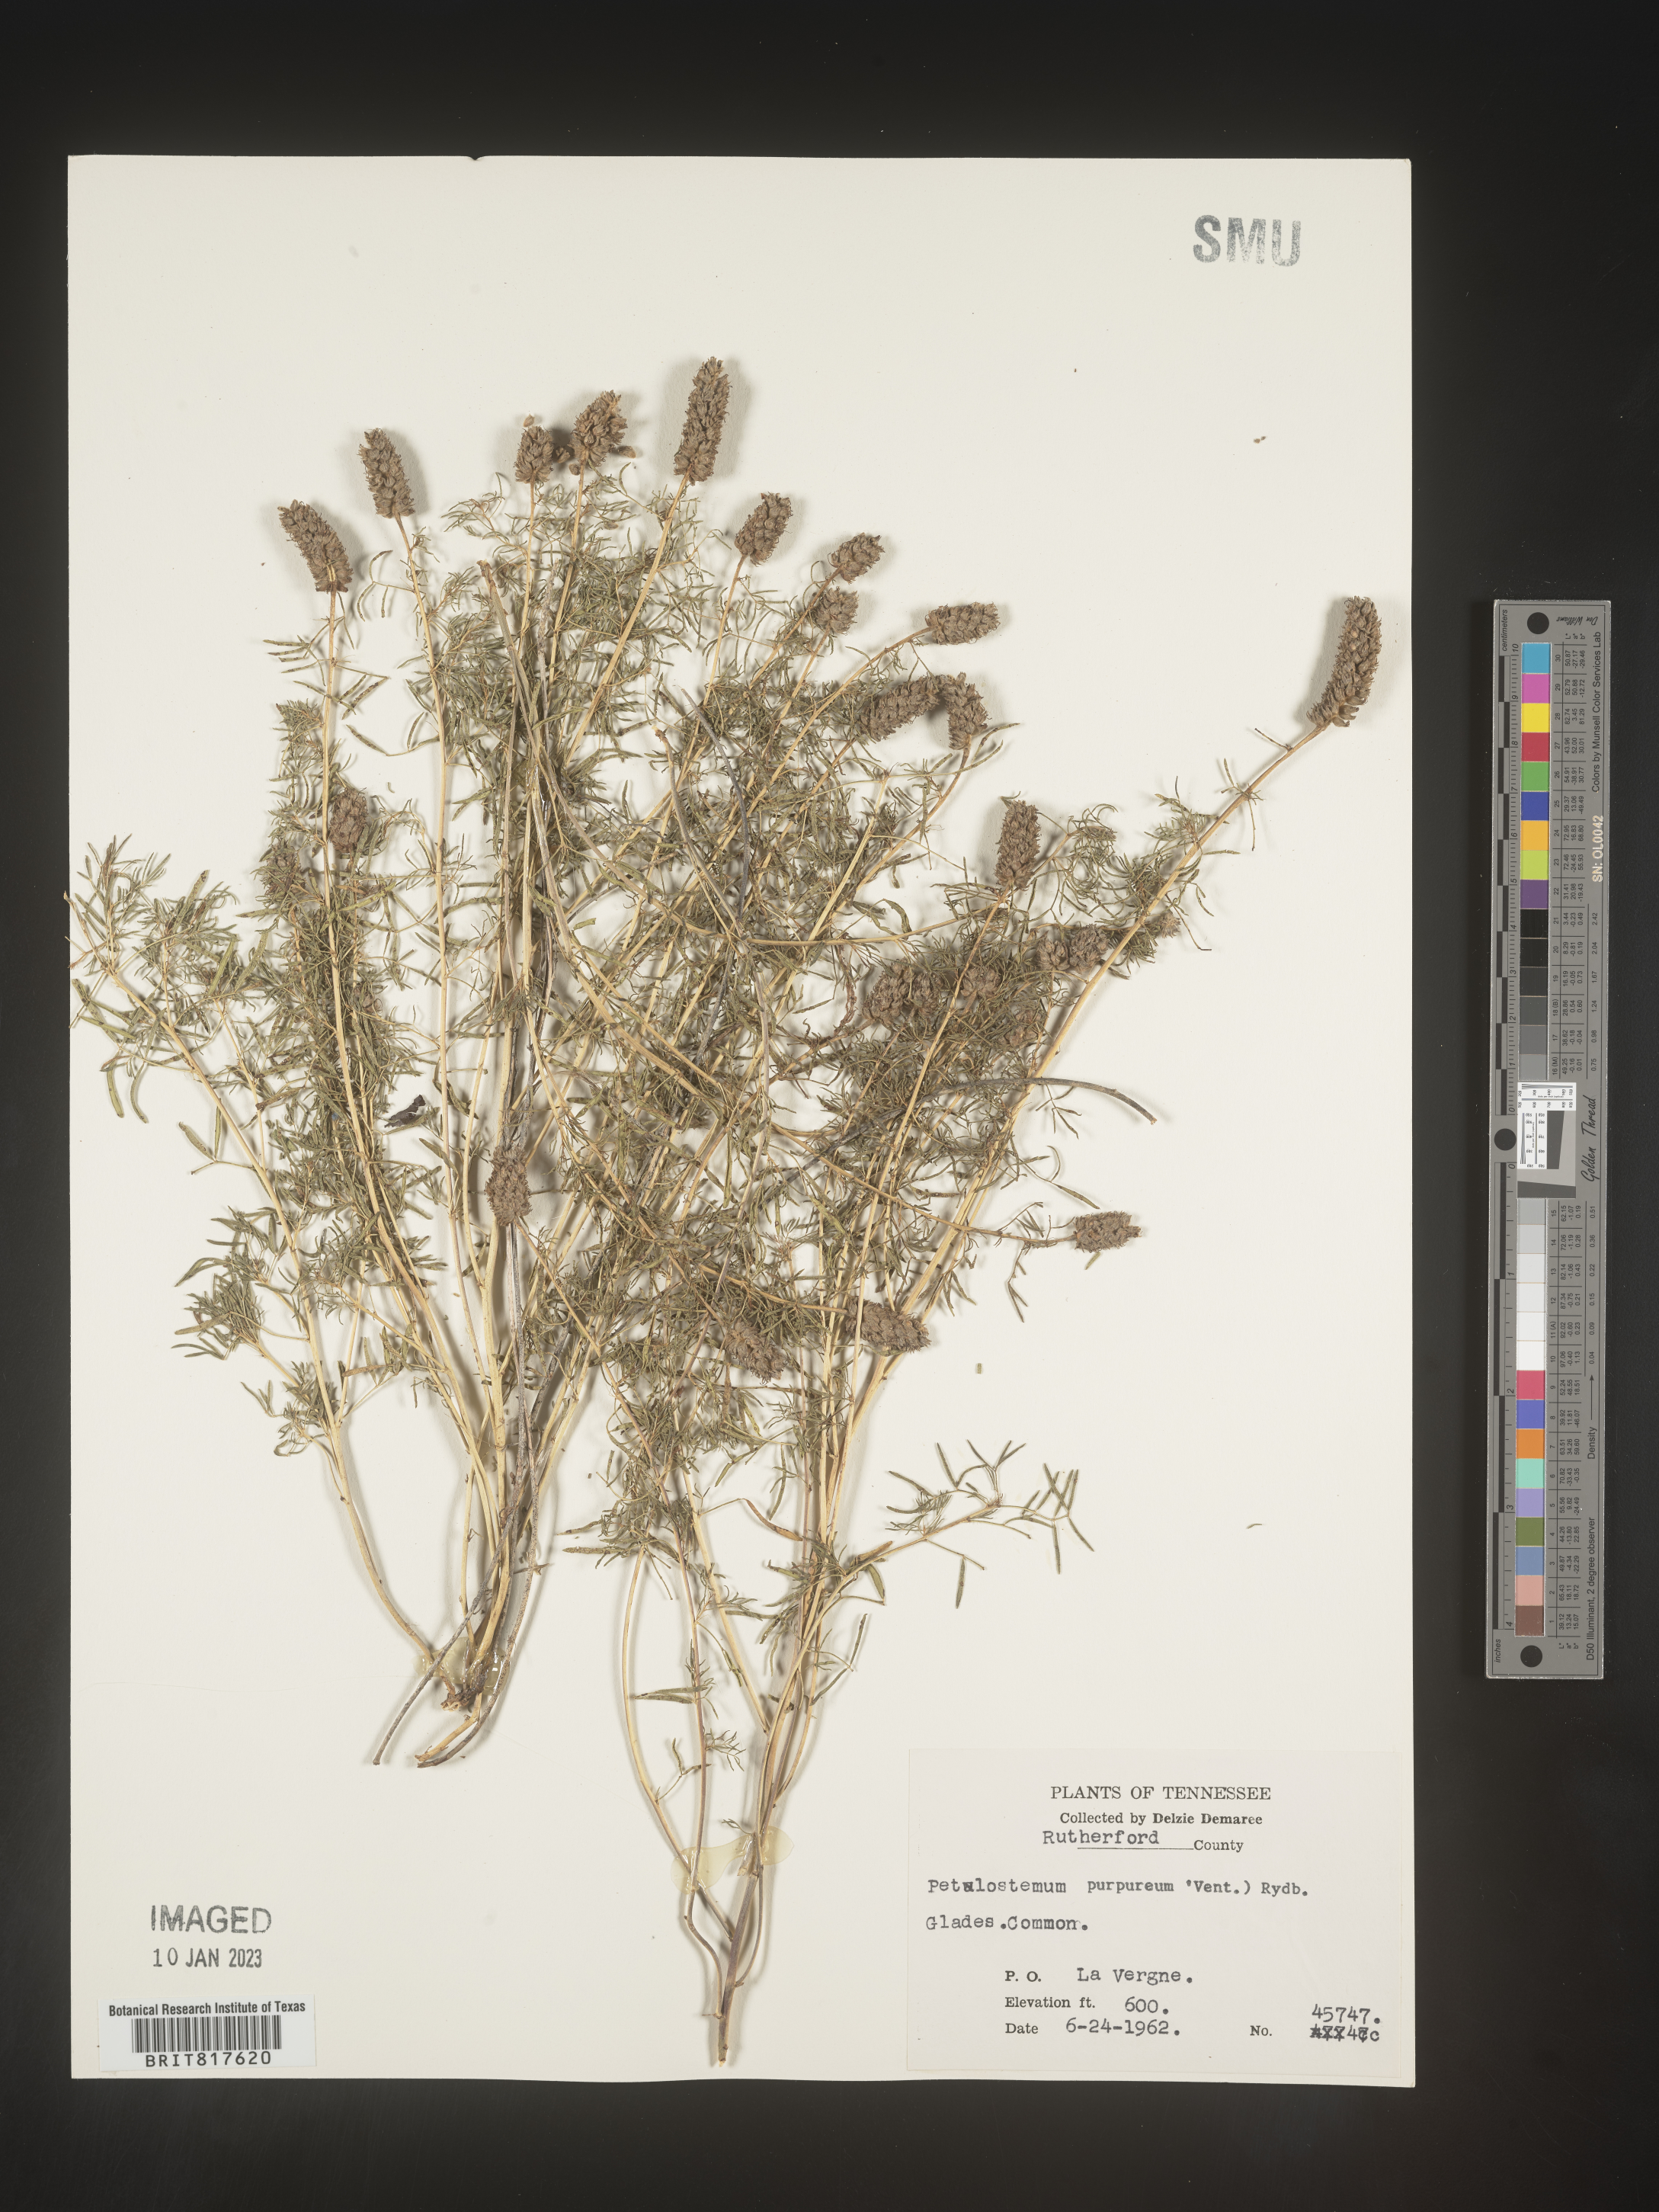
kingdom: Plantae
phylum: Tracheophyta
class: Magnoliopsida
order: Fabales
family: Fabaceae
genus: Dalea
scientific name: Dalea gattingeri
